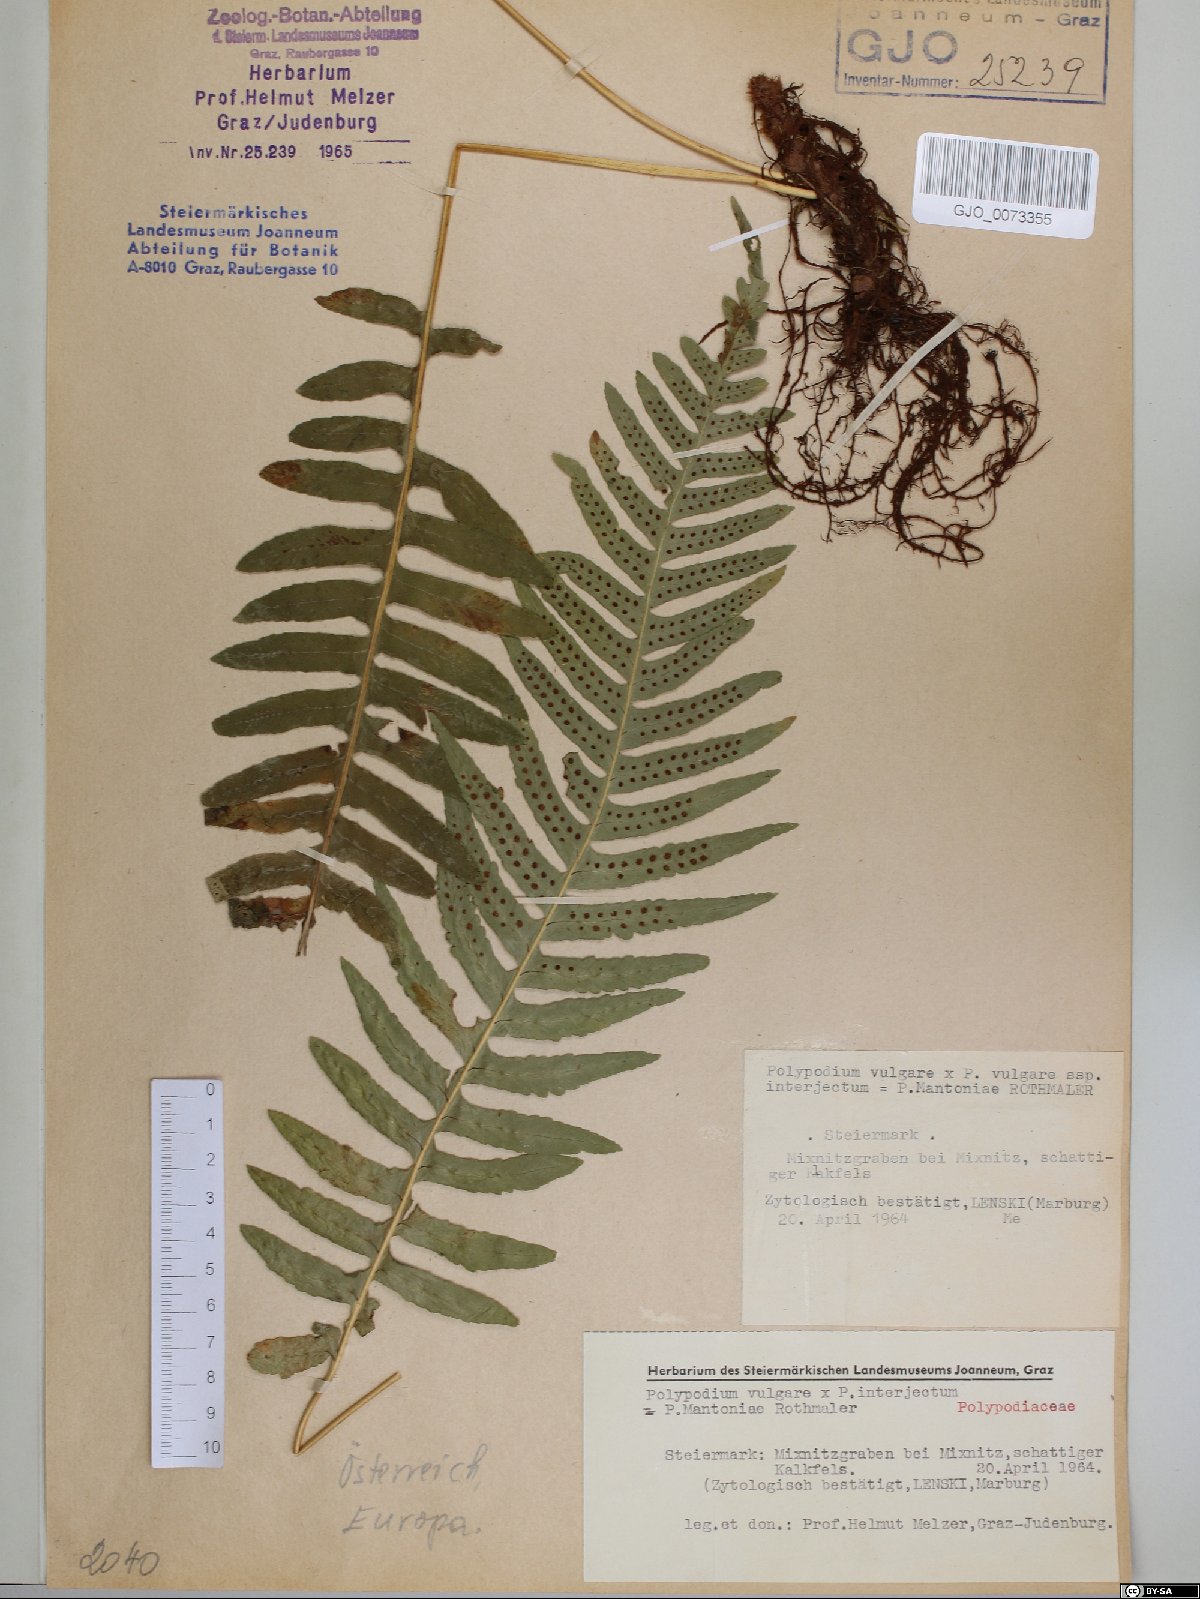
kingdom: Plantae
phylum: Tracheophyta
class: Polypodiopsida
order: Polypodiales
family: Polypodiaceae
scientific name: Polypodiaceae
